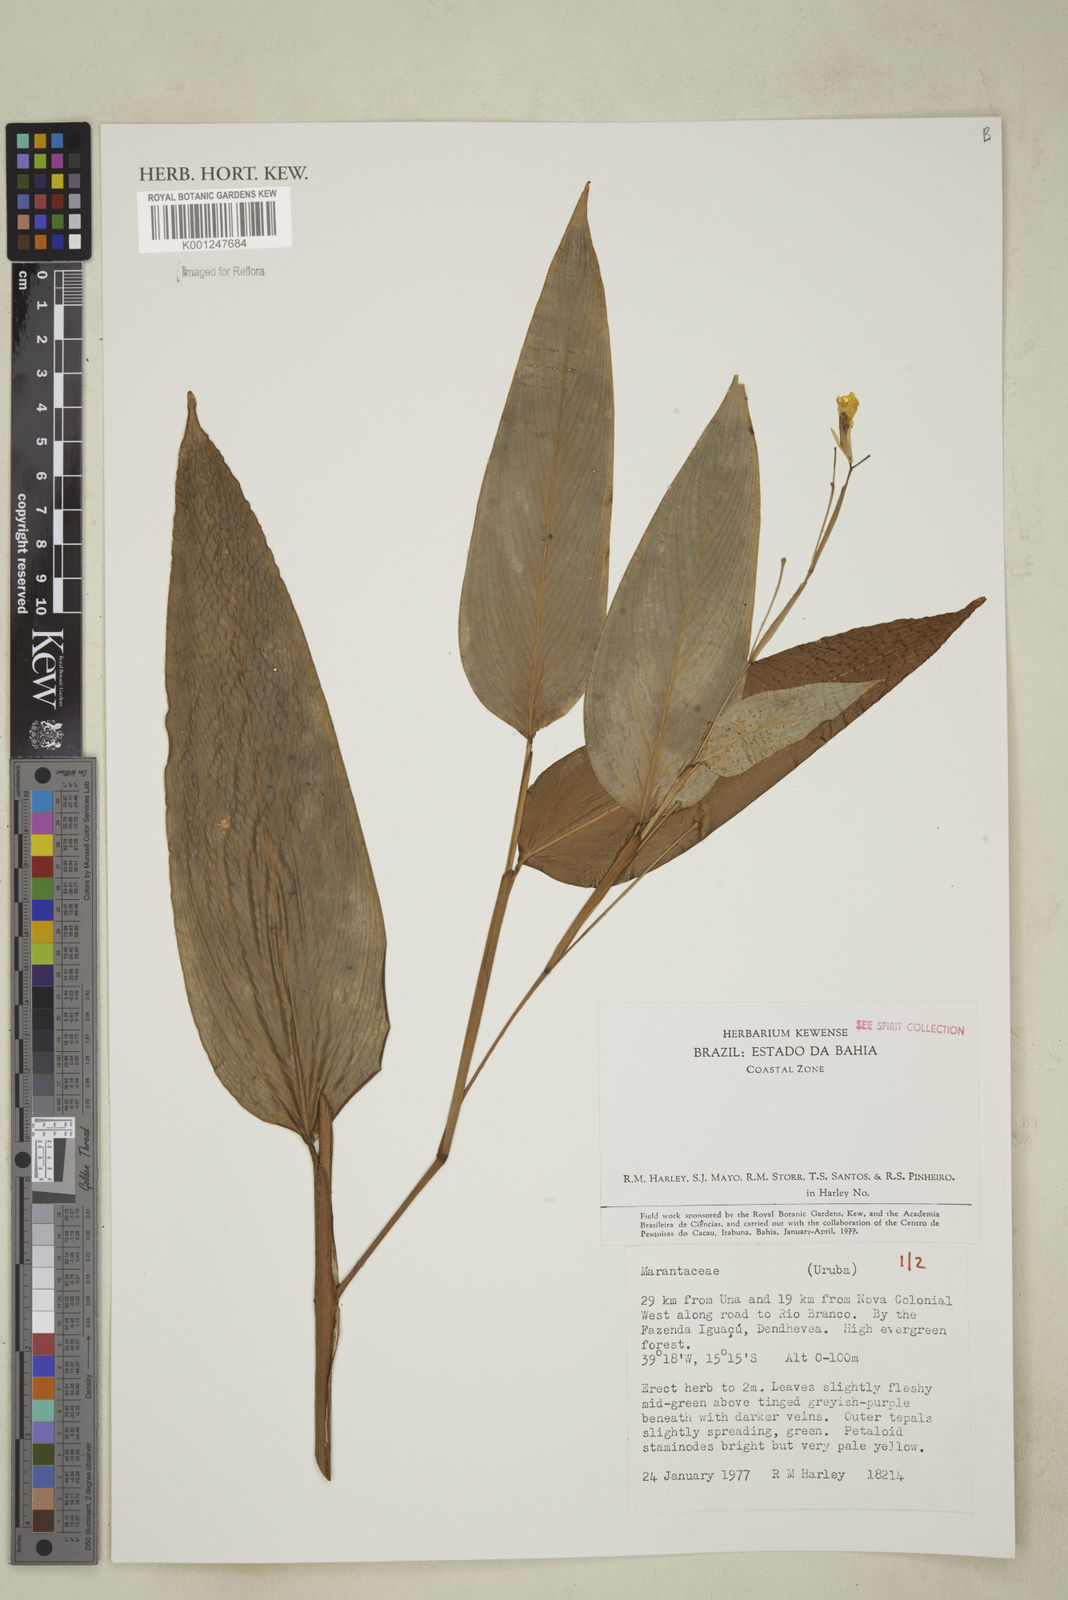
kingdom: Plantae
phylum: Tracheophyta
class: Liliopsida
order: Zingiberales
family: Marantaceae
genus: Maranta
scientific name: Maranta
